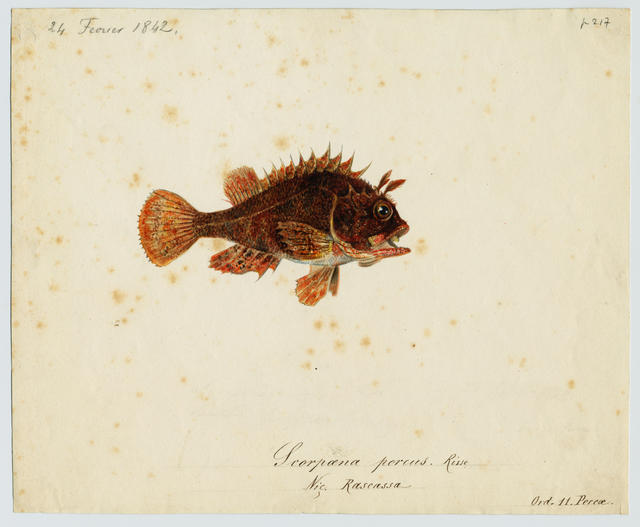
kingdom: Animalia
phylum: Chordata
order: Scorpaeniformes
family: Scorpaenidae
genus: Scorpaena
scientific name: Scorpaena porcus
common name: Black scorpionfish
